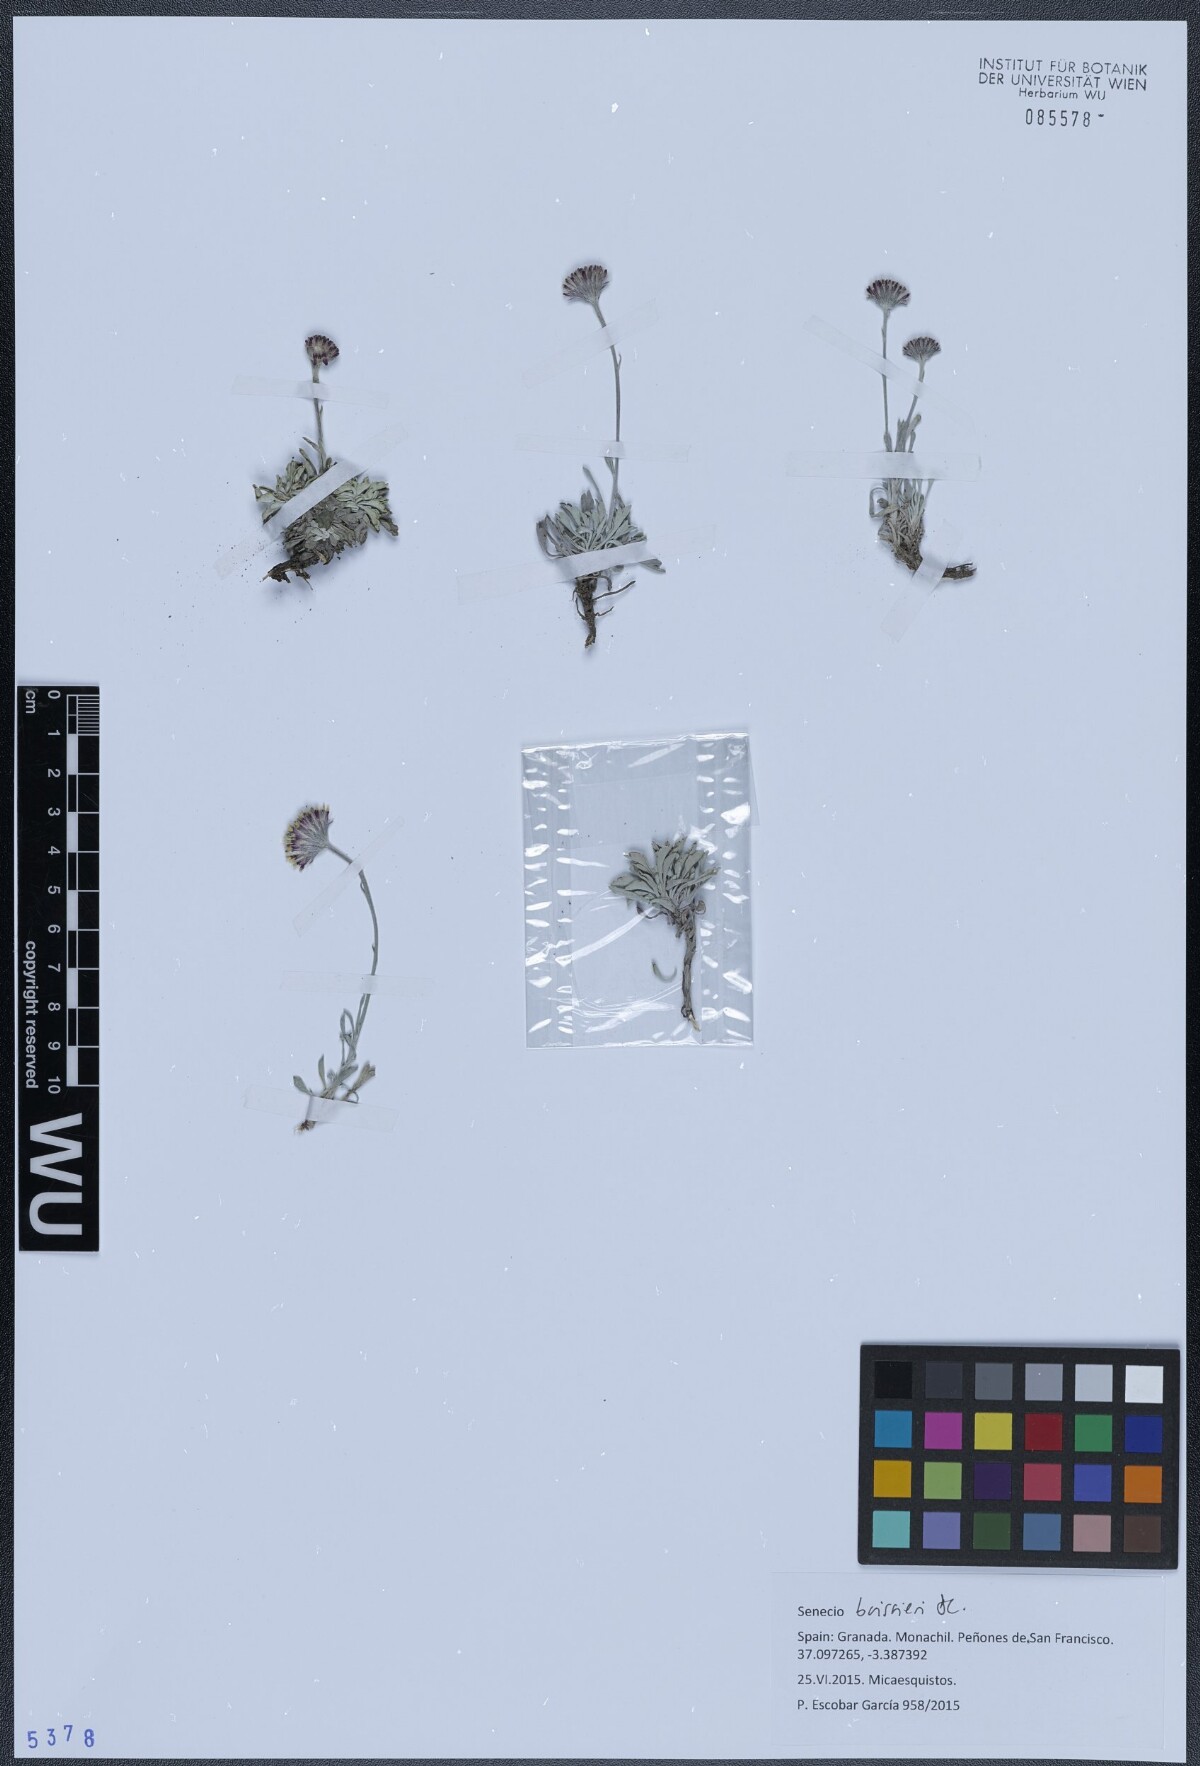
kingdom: Plantae
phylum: Tracheophyta
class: Magnoliopsida
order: Asterales
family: Asteraceae
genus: Jacobaea
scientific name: Jacobaea boissieri
